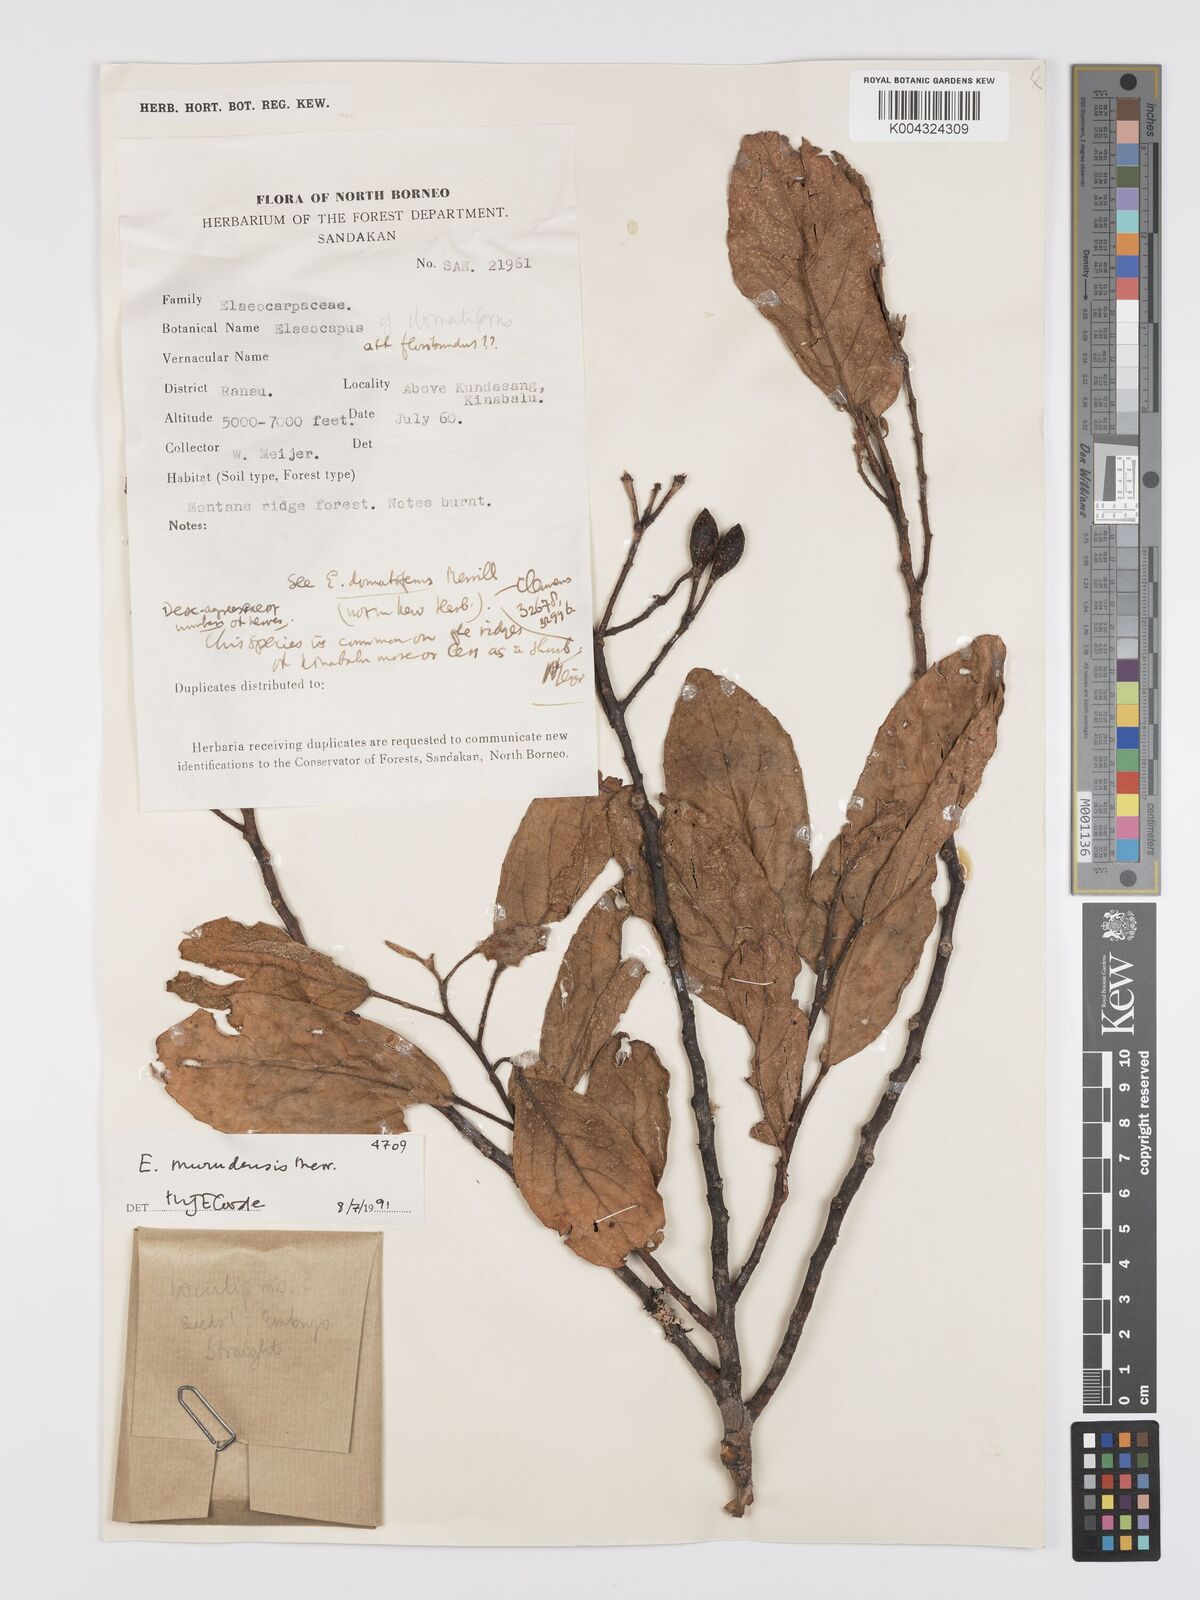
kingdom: Plantae
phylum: Tracheophyta
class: Magnoliopsida
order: Oxalidales
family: Elaeocarpaceae
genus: Elaeocarpus
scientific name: Elaeocarpus murudensis
